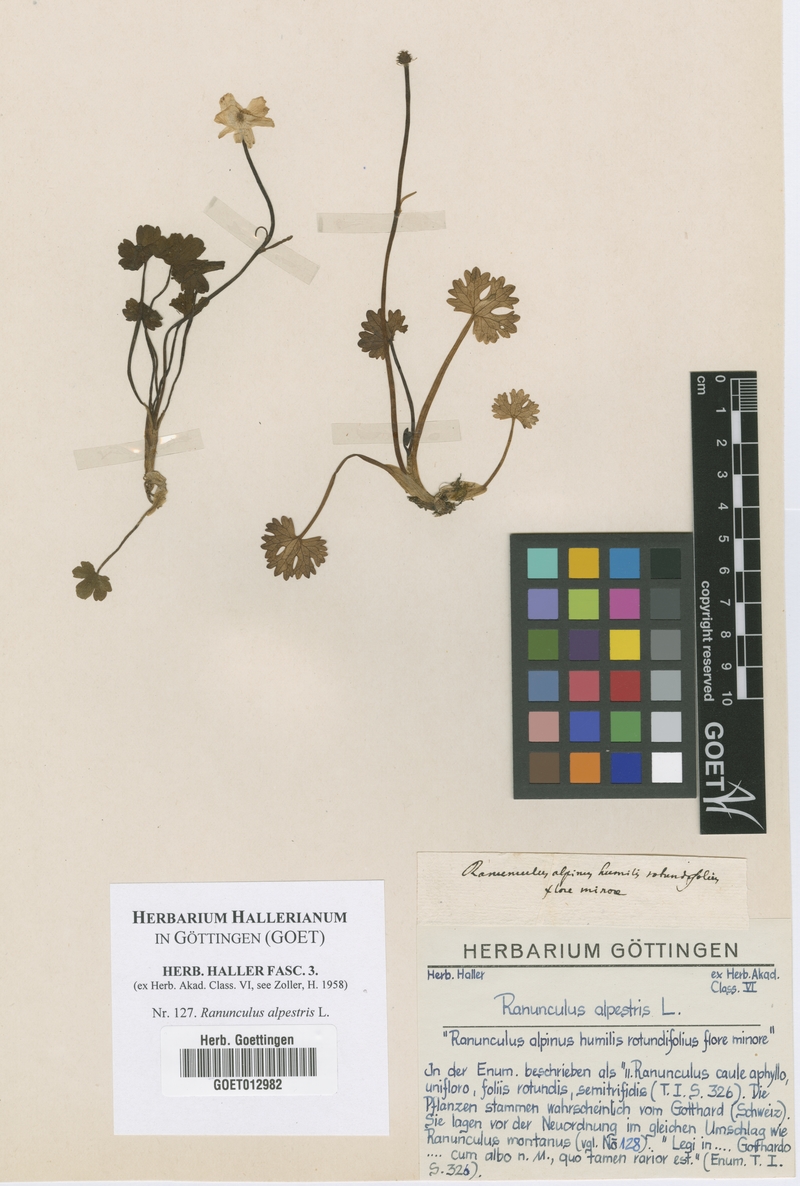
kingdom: Plantae
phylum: Tracheophyta
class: Magnoliopsida
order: Ranunculales
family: Ranunculaceae
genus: Ranunculus
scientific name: Ranunculus alpestris
